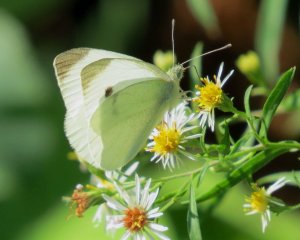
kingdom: Animalia
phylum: Arthropoda
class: Insecta
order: Lepidoptera
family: Pieridae
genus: Pieris
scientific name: Pieris rapae
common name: Cabbage White
